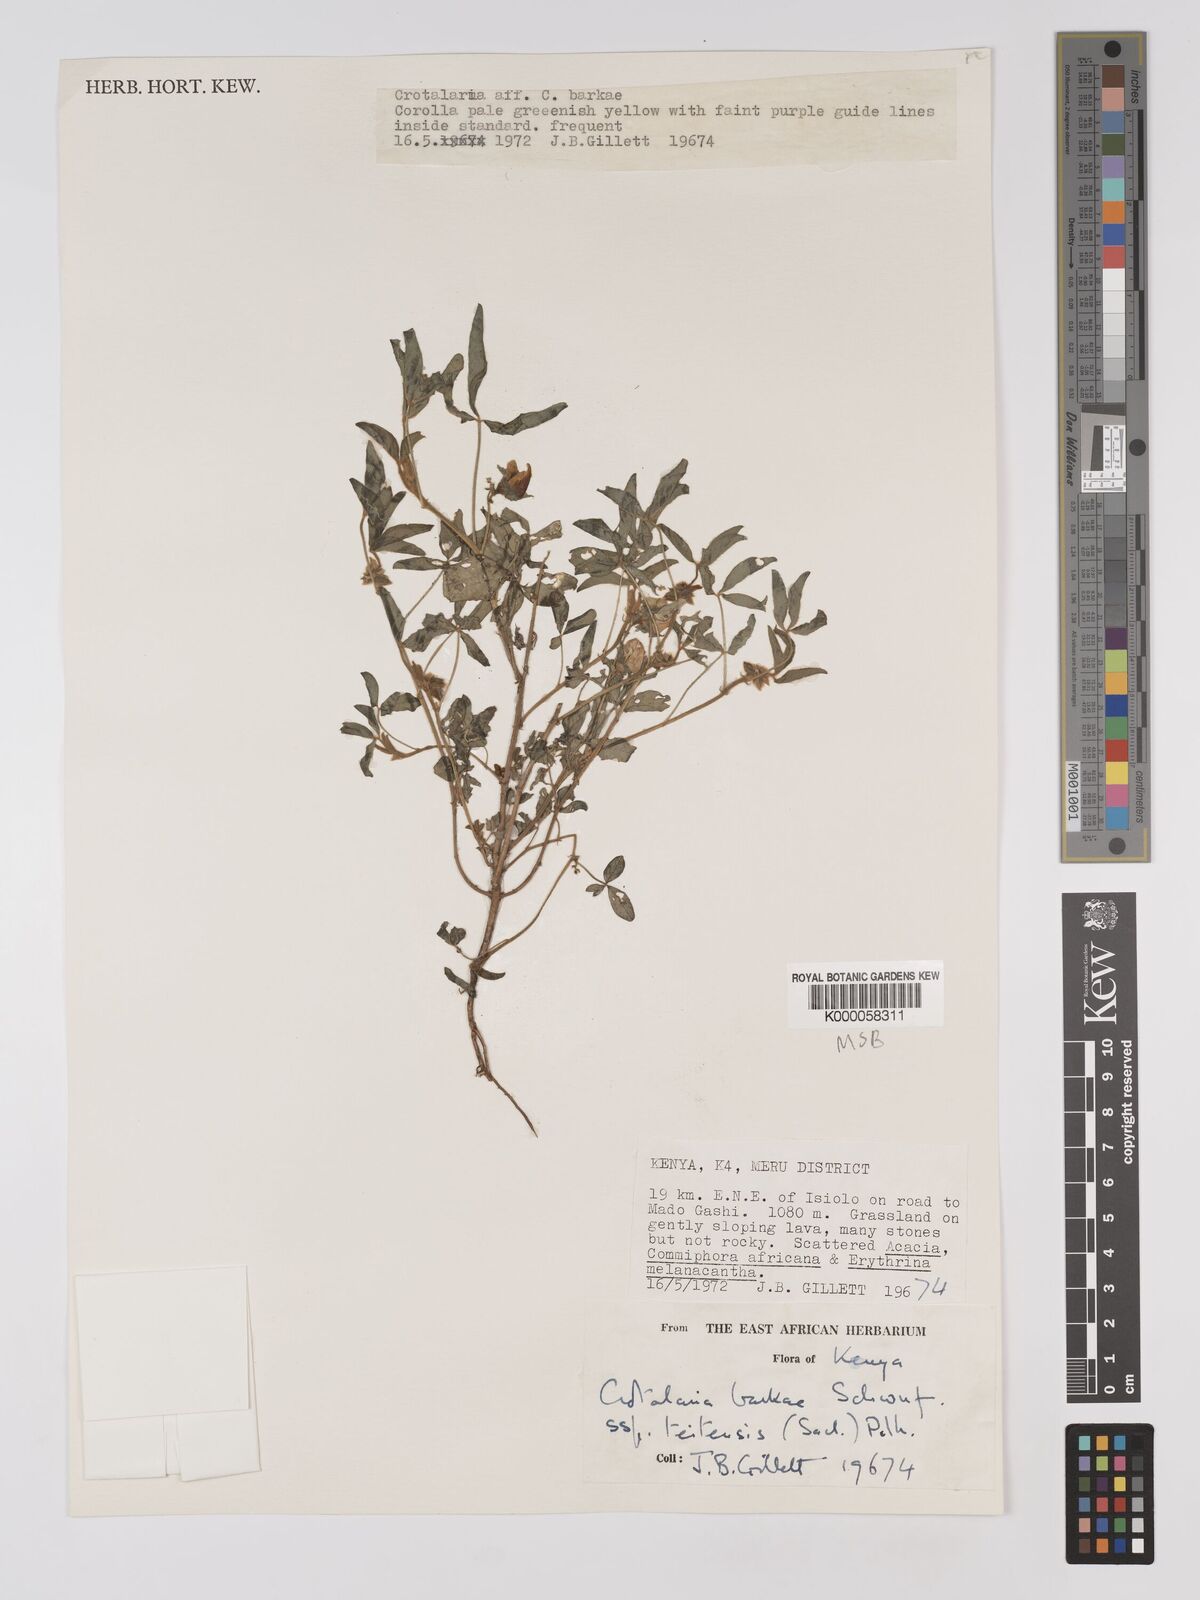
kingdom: Plantae
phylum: Tracheophyta
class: Magnoliopsida
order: Fabales
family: Fabaceae
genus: Crotalaria
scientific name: Crotalaria barkae
